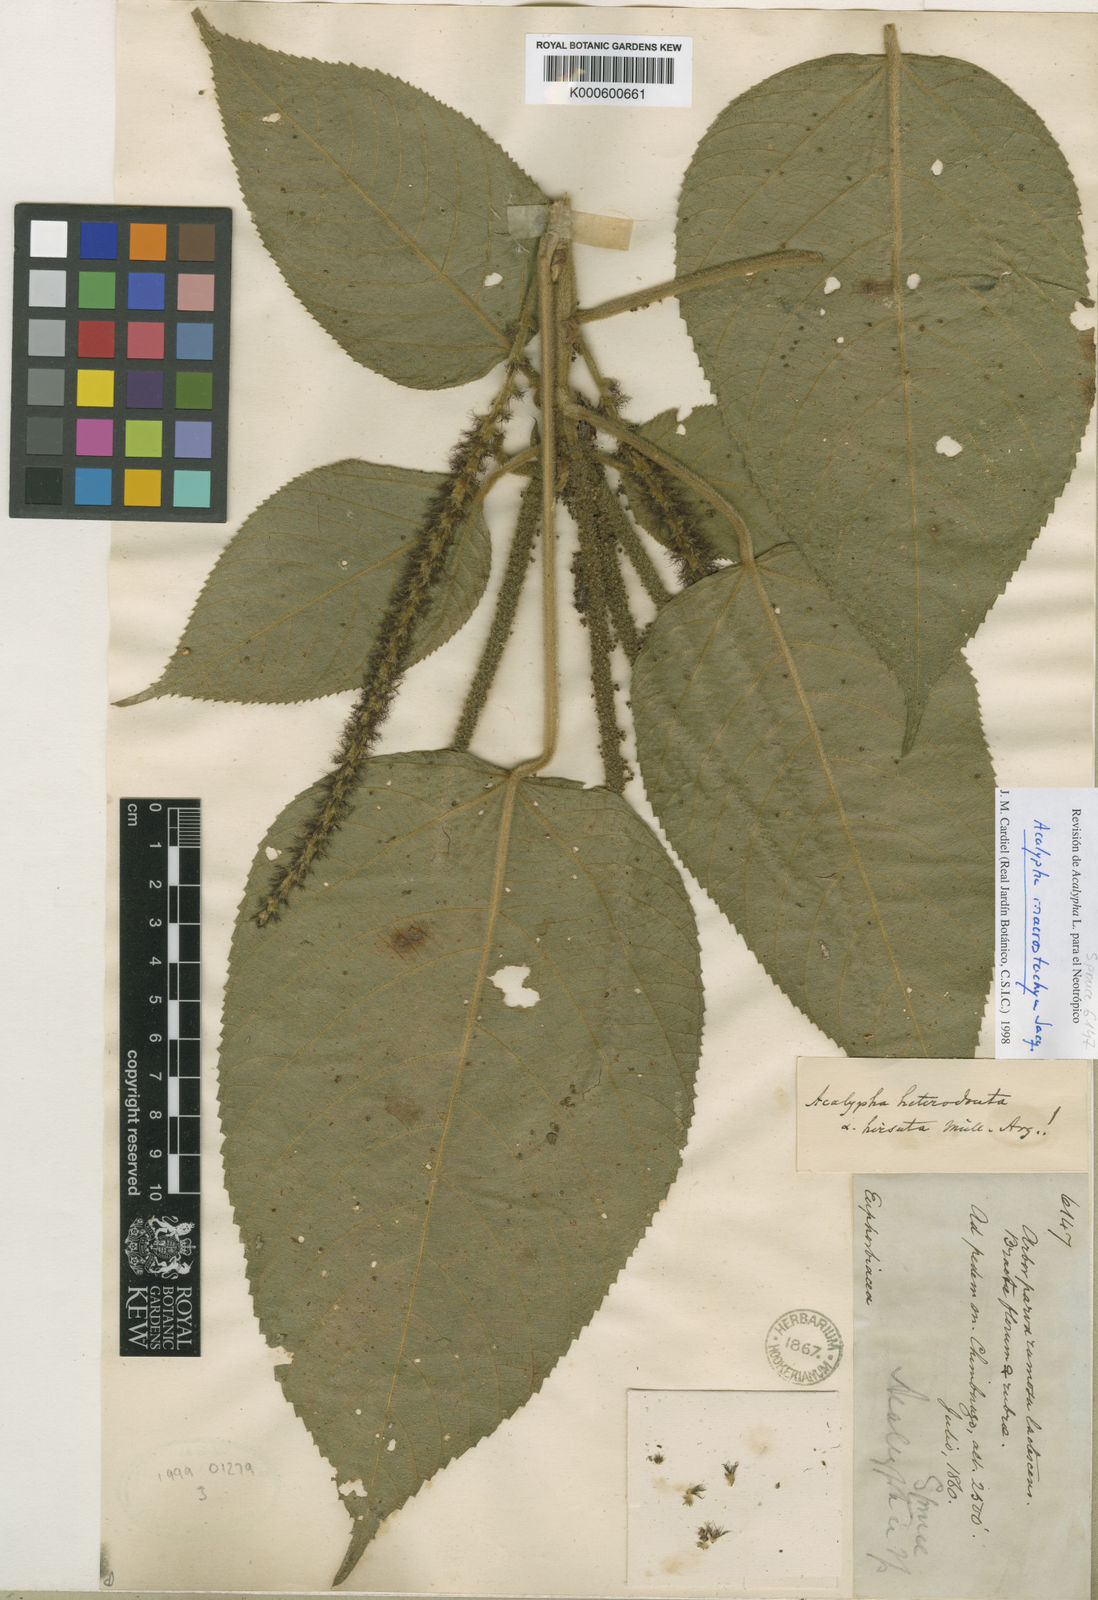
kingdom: Plantae
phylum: Tracheophyta
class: Magnoliopsida
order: Malpighiales
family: Euphorbiaceae
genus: Acalypha
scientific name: Acalypha macrostachya
